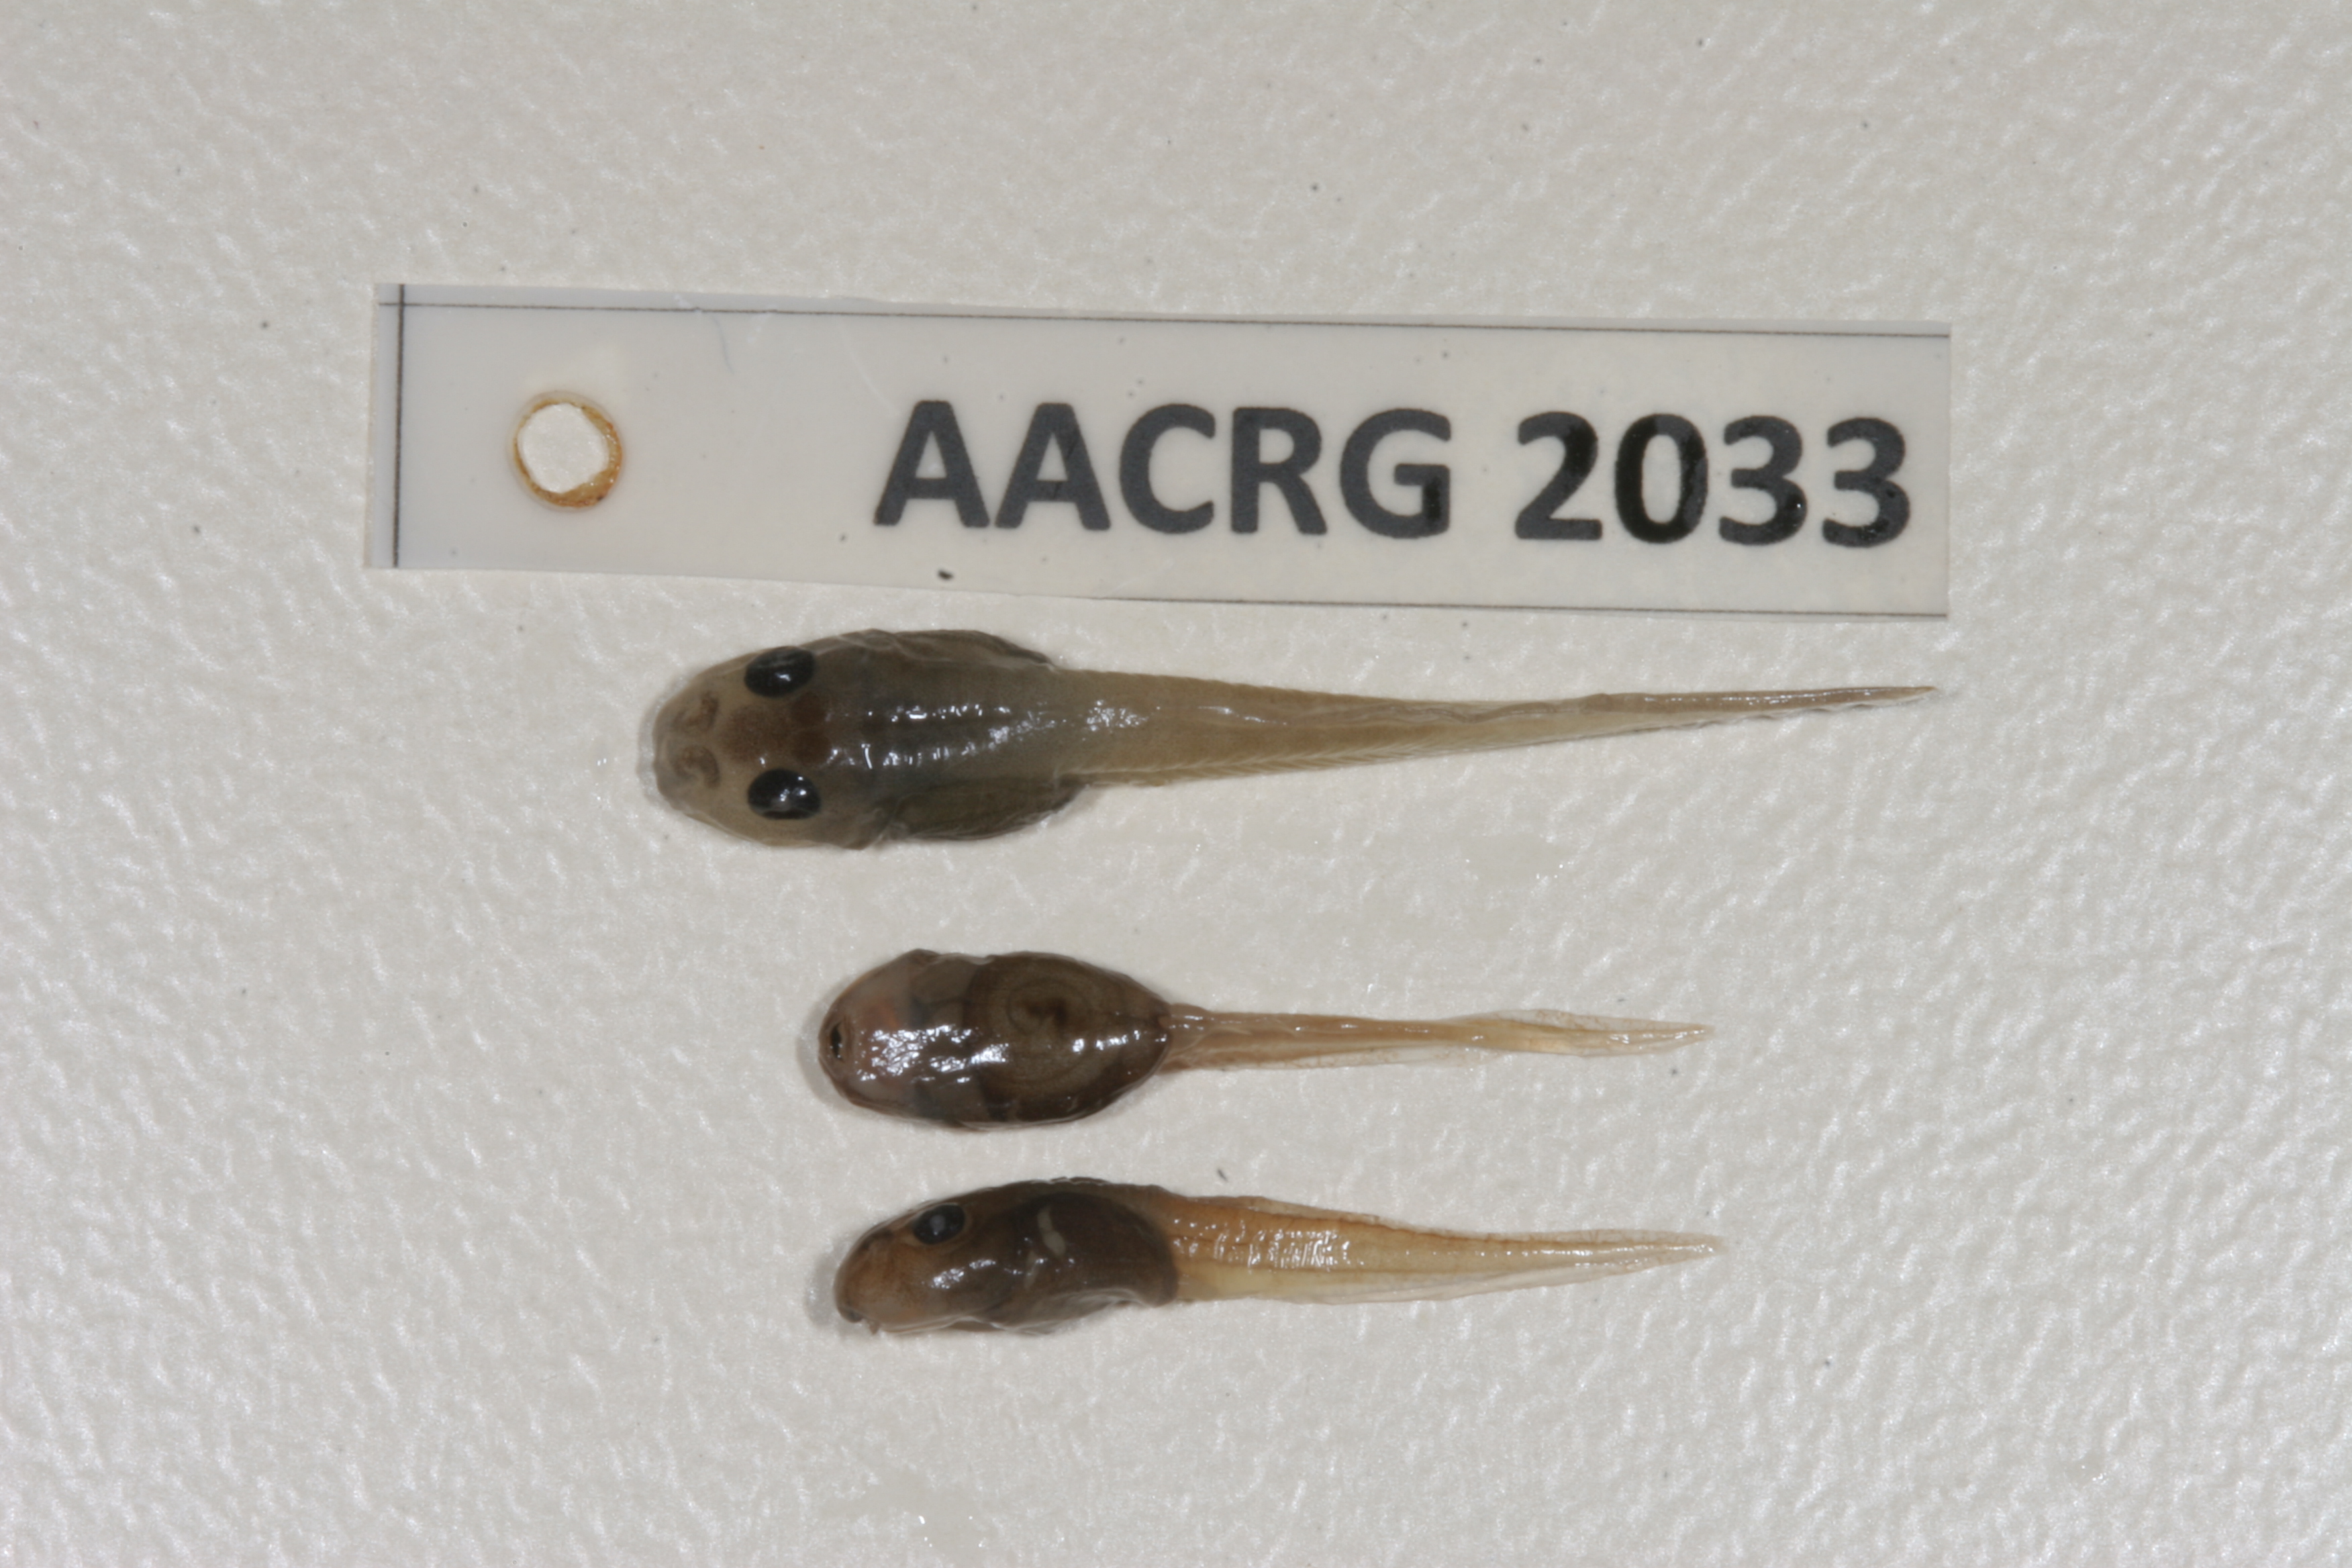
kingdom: Animalia
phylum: Chordata
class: Amphibia
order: Anura
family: Pyxicephalidae
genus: Amietia
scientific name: Amietia angolensis
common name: Dusky-throated frog
